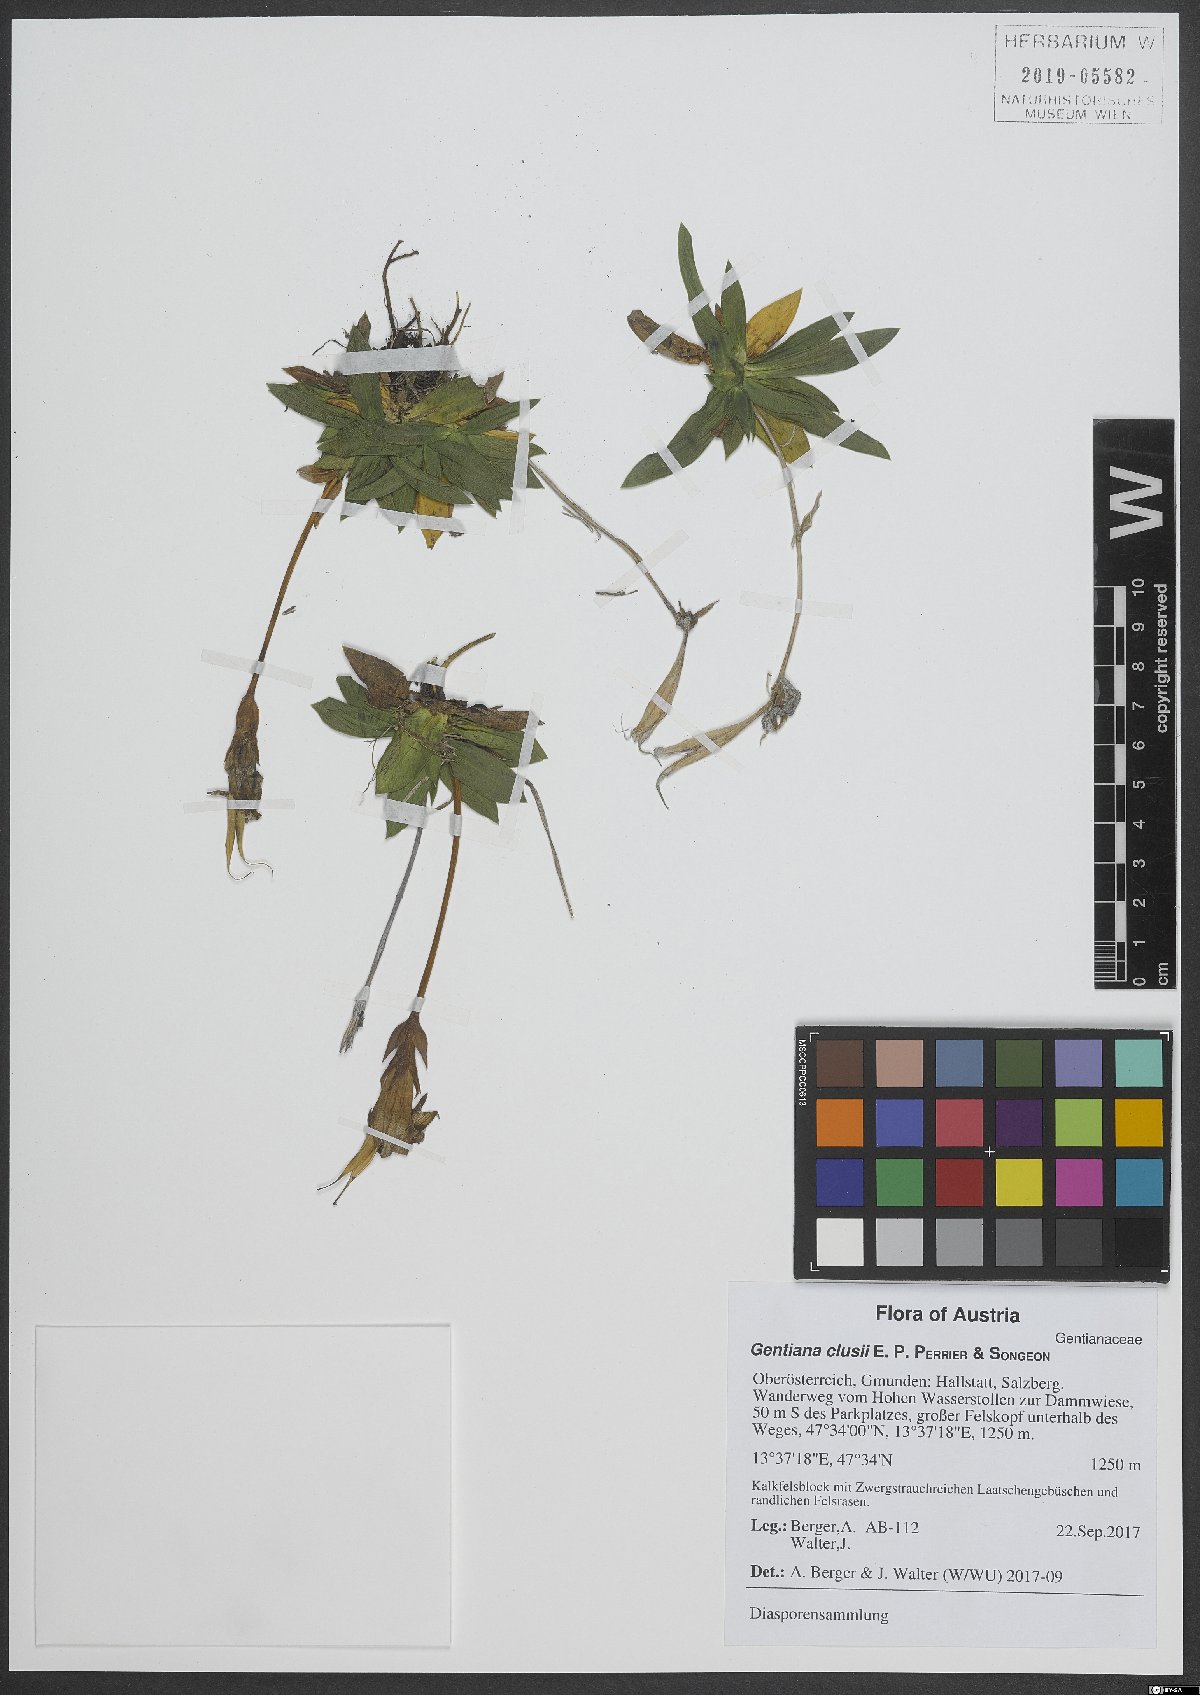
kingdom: Plantae
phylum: Tracheophyta
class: Magnoliopsida
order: Gentianales
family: Gentianaceae
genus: Gentiana
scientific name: Gentiana clusii
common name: Trumpet gentian
